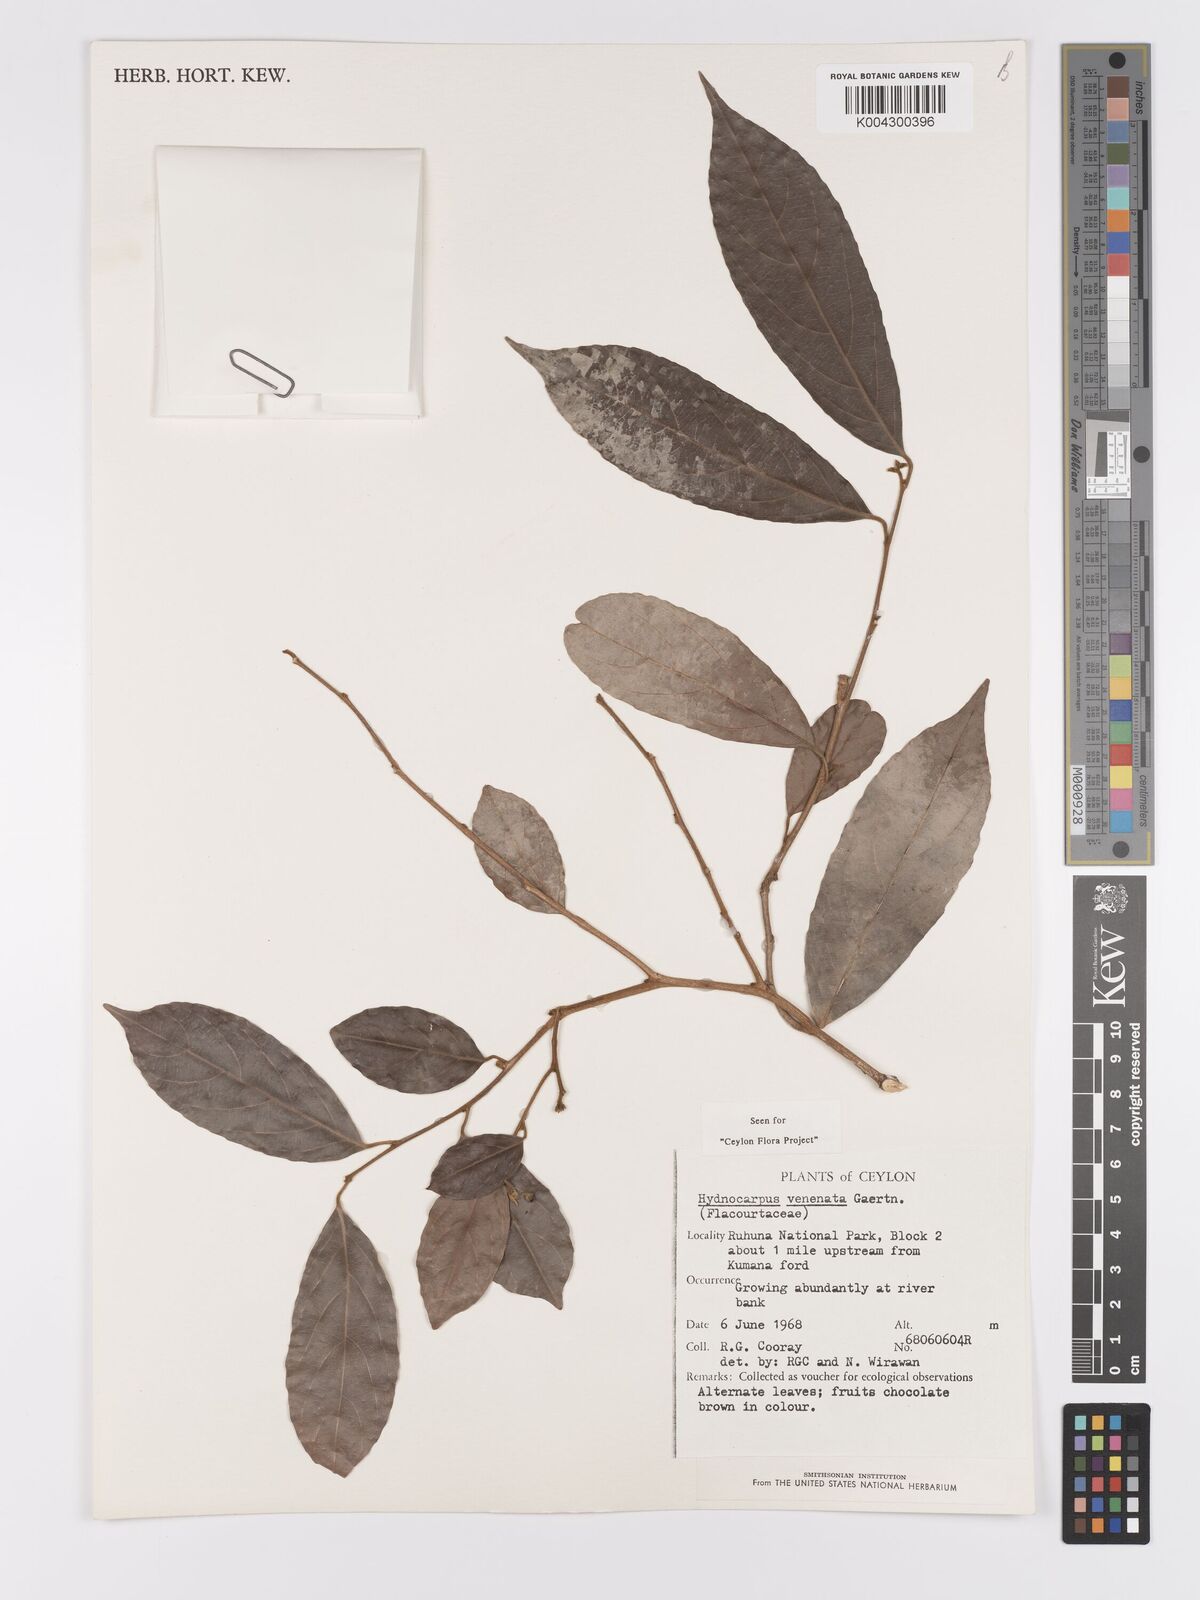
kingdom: Plantae
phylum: Tracheophyta
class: Magnoliopsida
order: Malpighiales
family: Achariaceae
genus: Hydnocarpus
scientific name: Hydnocarpus venenatus
